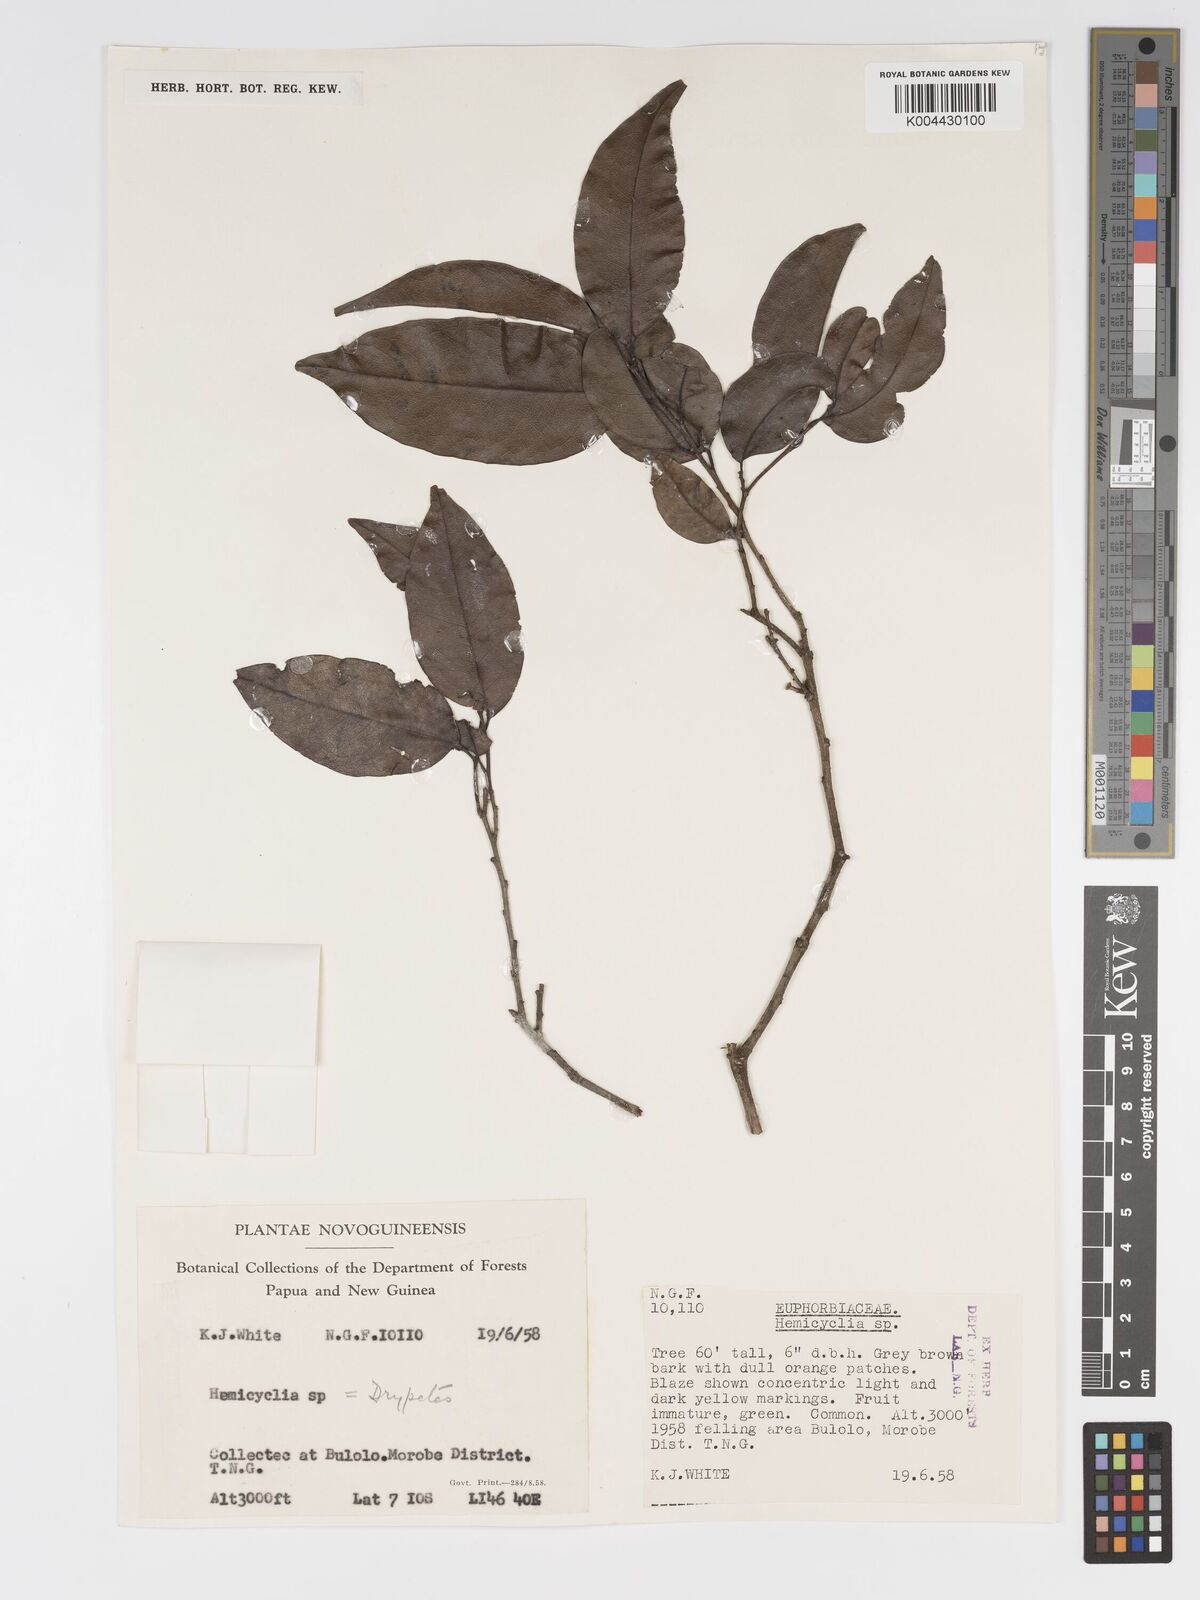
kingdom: Plantae
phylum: Tracheophyta
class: Magnoliopsida
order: Malpighiales
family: Putranjivaceae
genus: Drypetes
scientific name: Drypetes lasiogynoides
